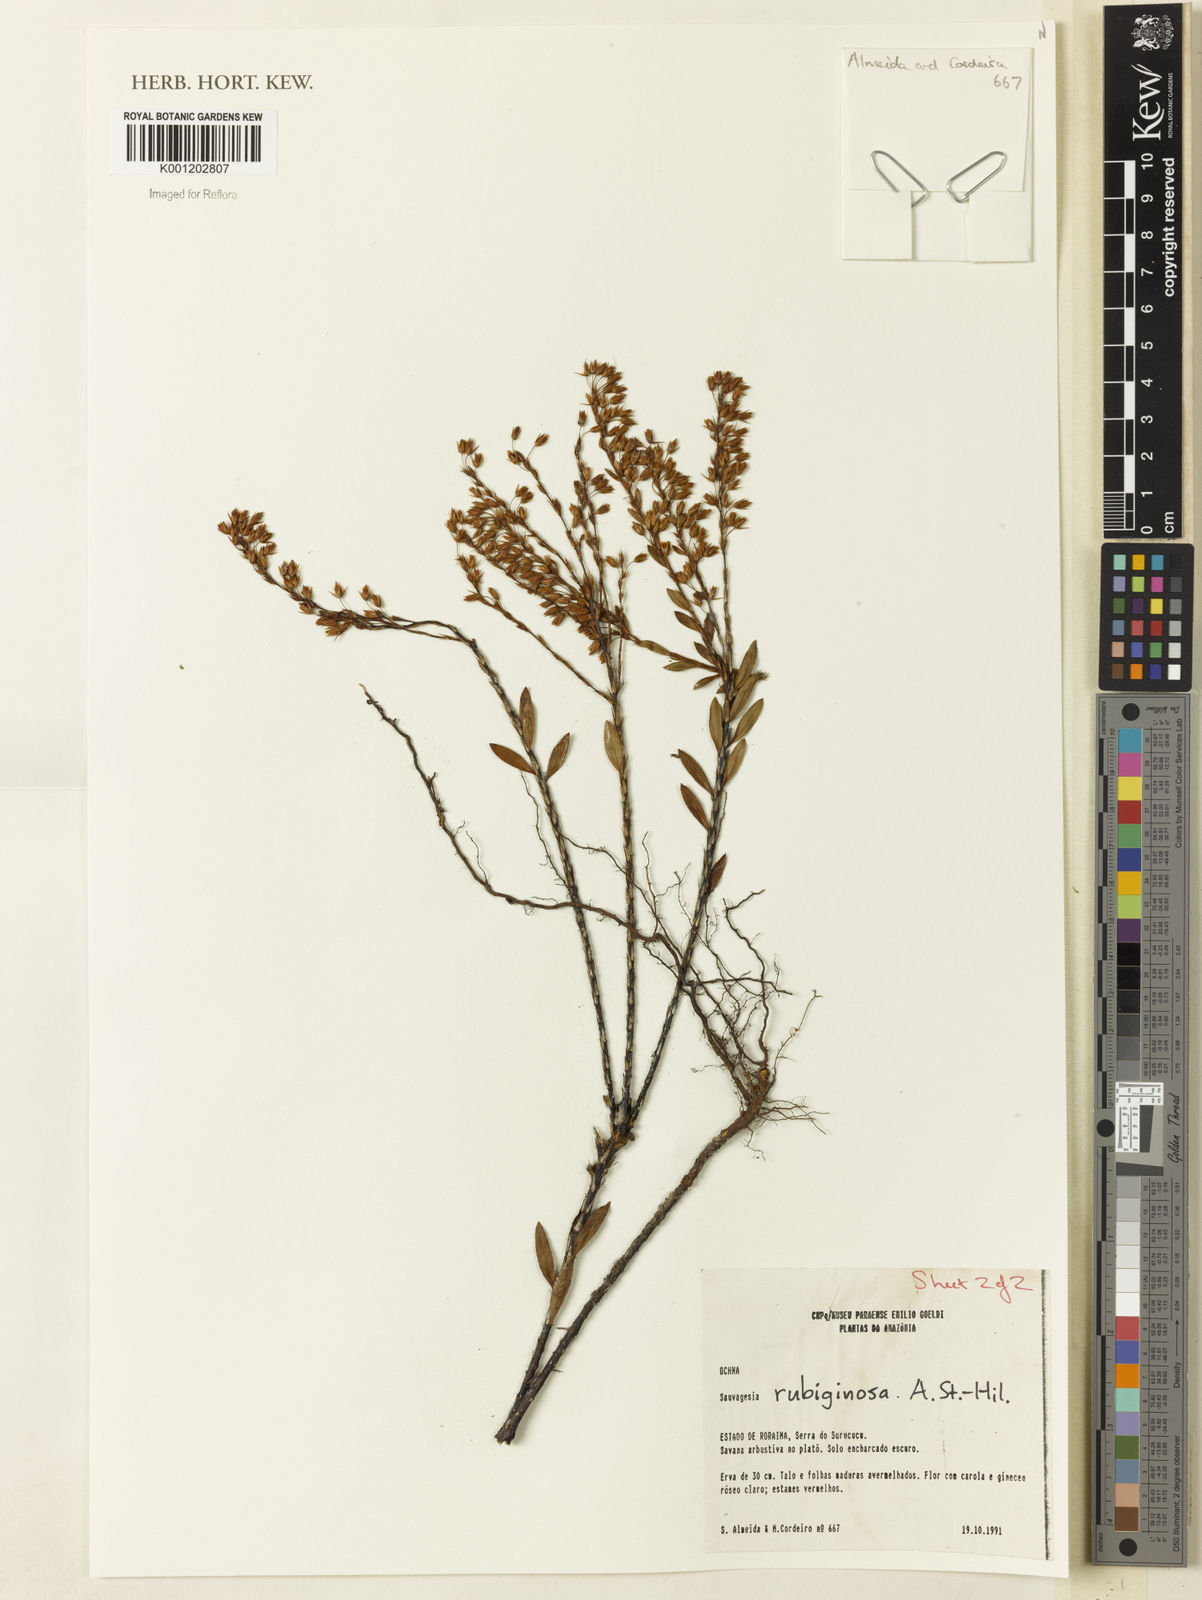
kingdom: Plantae
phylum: Tracheophyta
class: Magnoliopsida
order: Malpighiales
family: Ochnaceae
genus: Sauvagesia
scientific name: Sauvagesia rubiginosa
